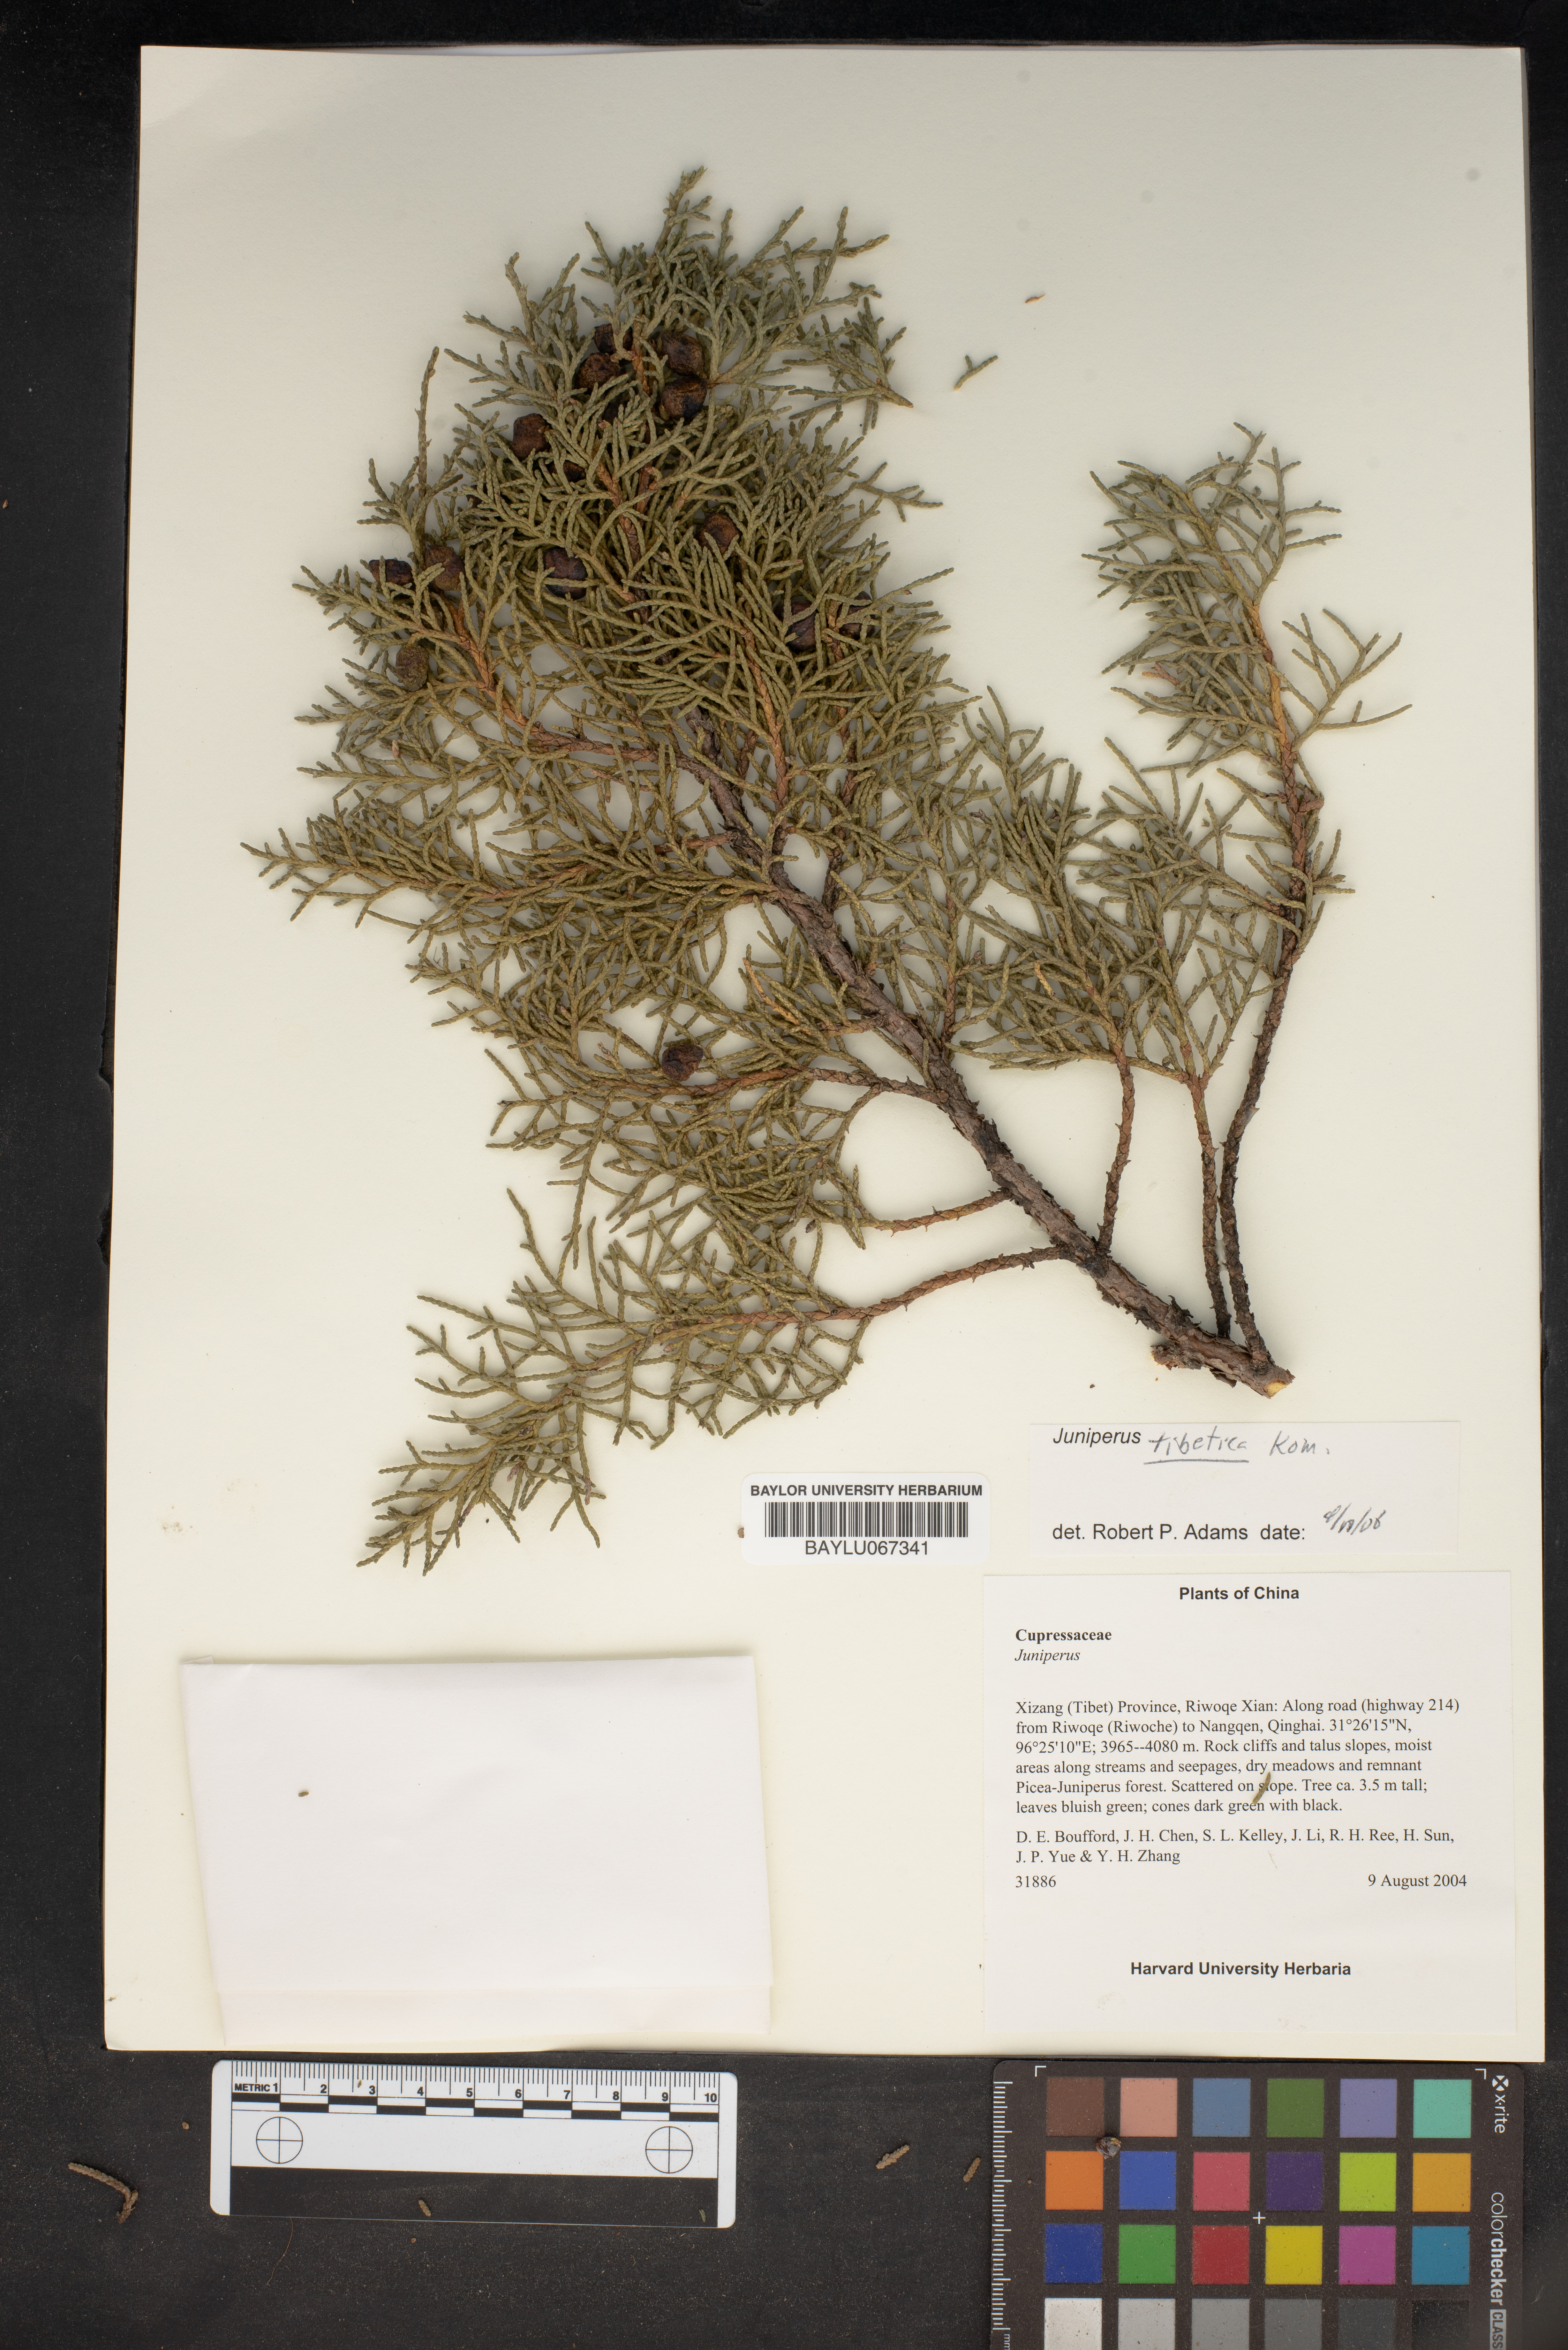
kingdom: Plantae
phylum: Tracheophyta
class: Pinopsida
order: Pinales
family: Cupressaceae
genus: Juniperus
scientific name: Juniperus tibetica
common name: Tibetan juniper
